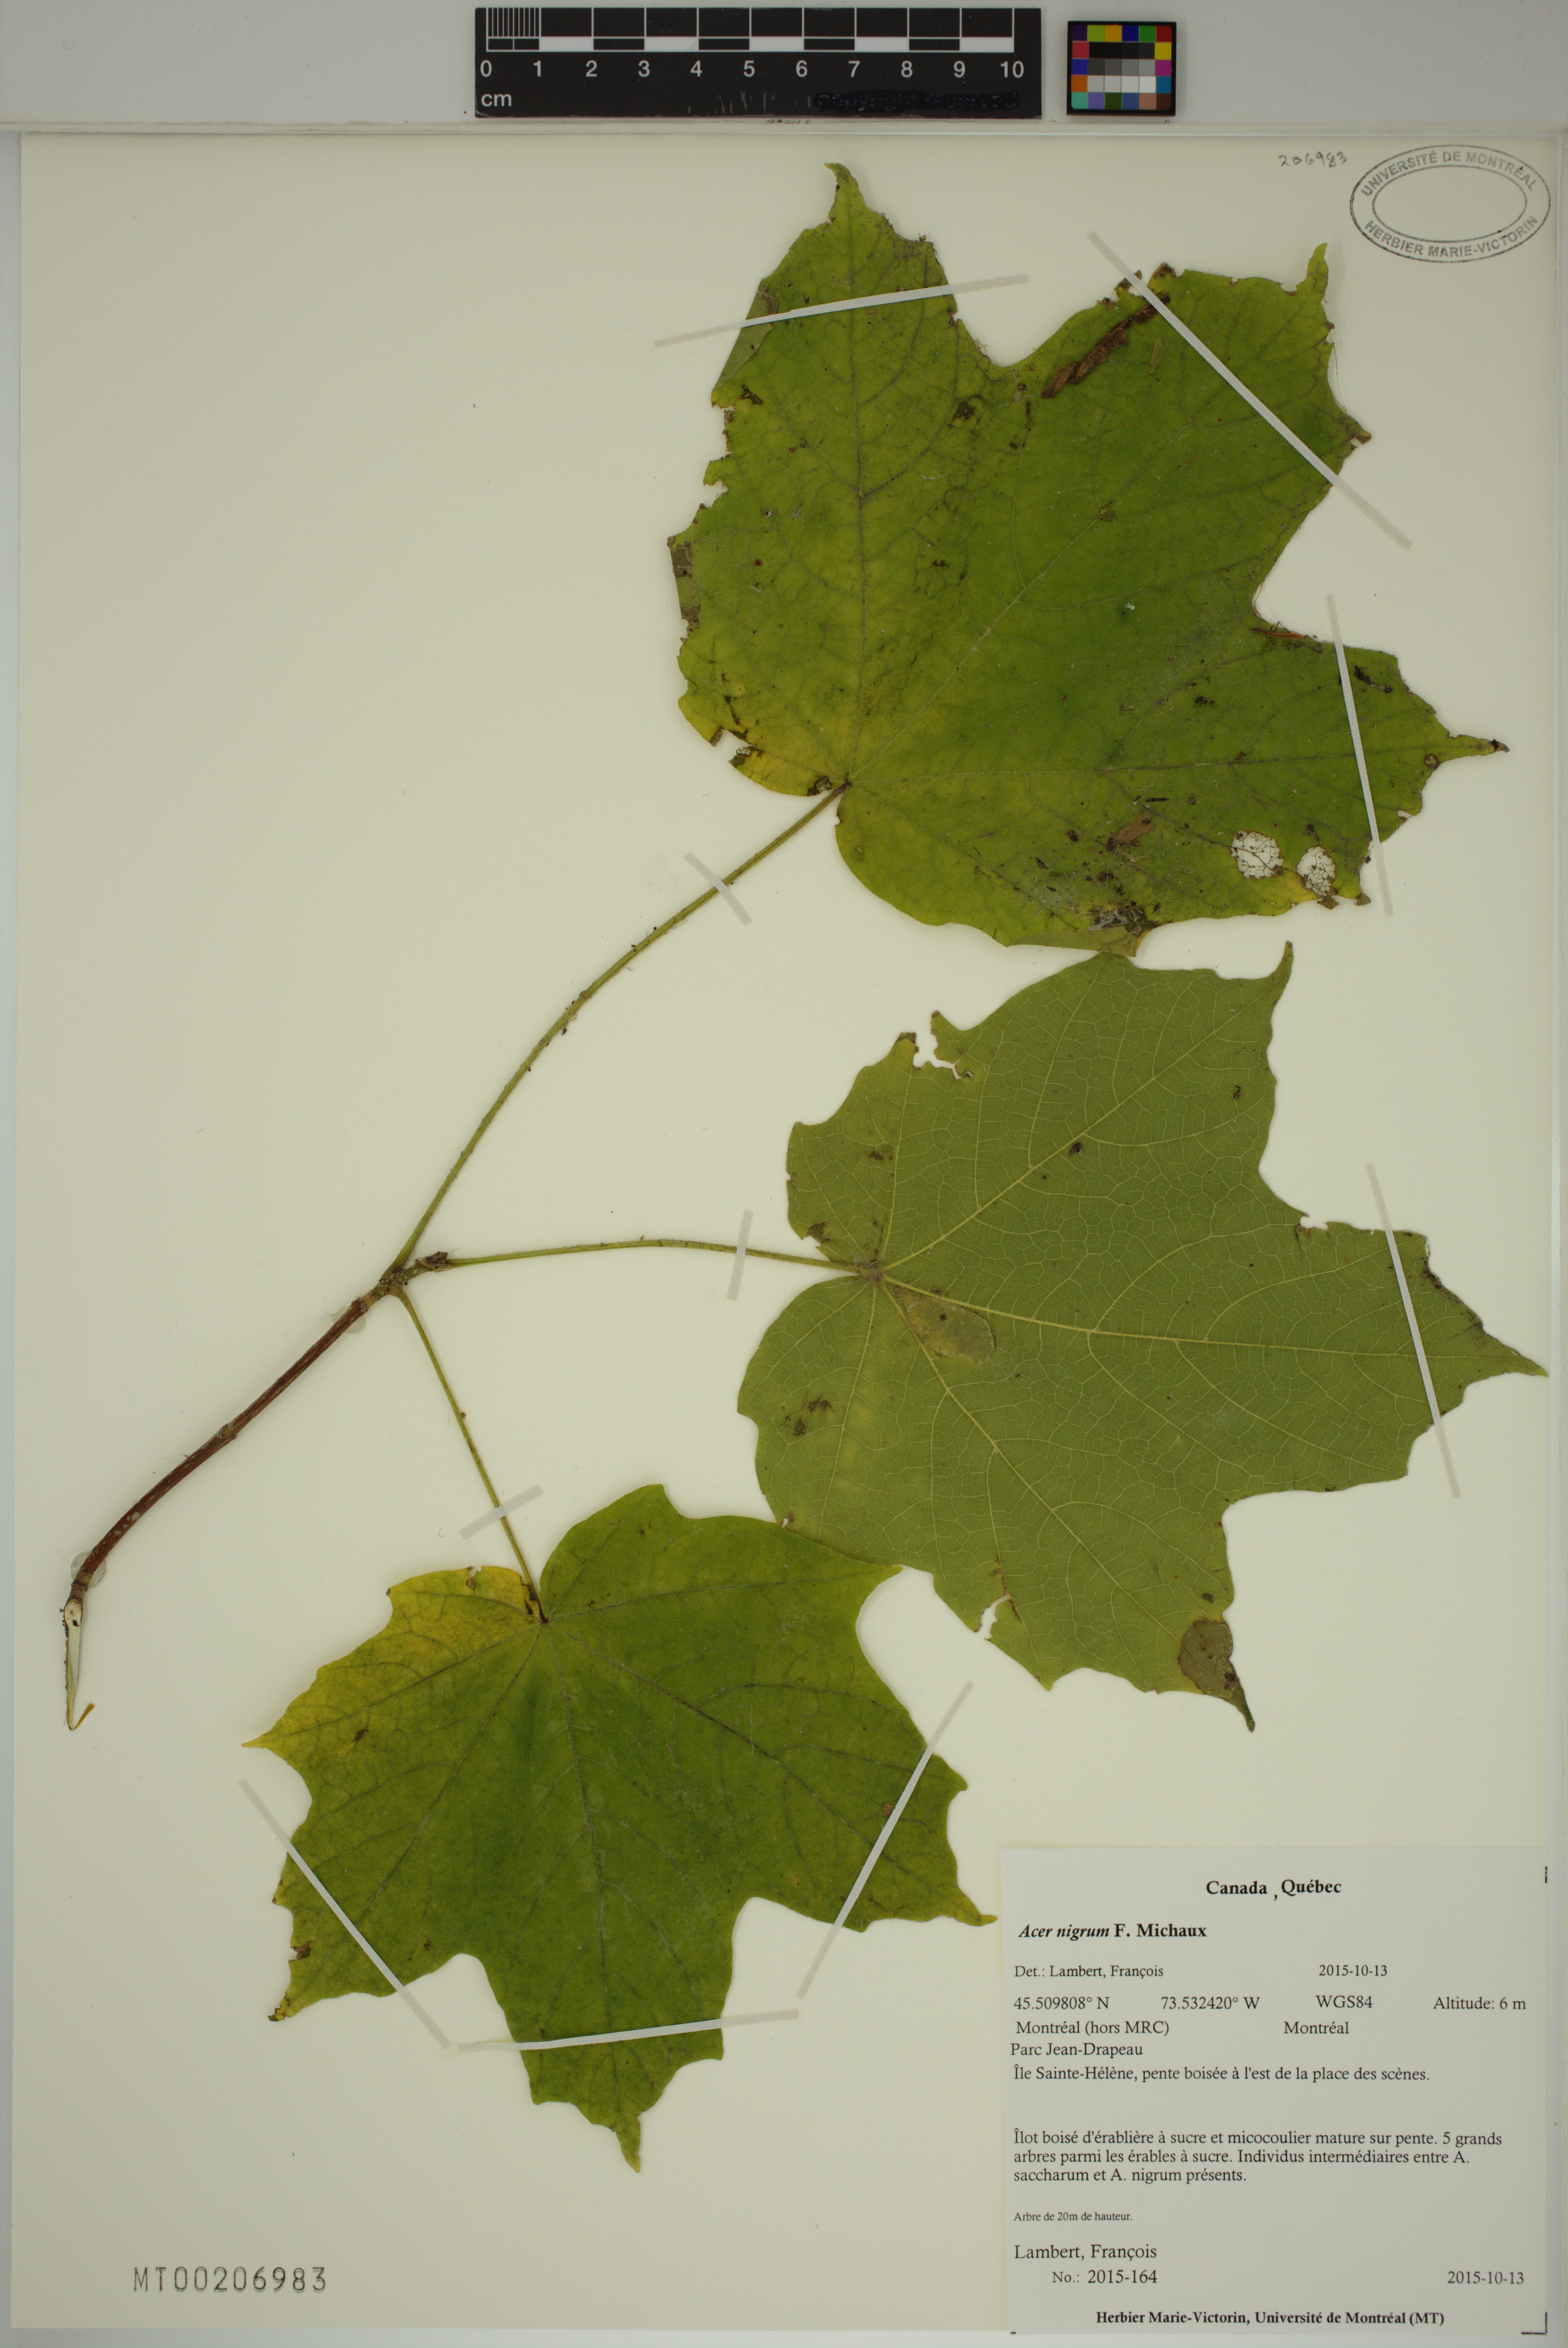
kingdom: Plantae
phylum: Tracheophyta
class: Magnoliopsida
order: Sapindales
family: Sapindaceae
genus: Acer
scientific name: Acer nigrum
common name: Black maple
